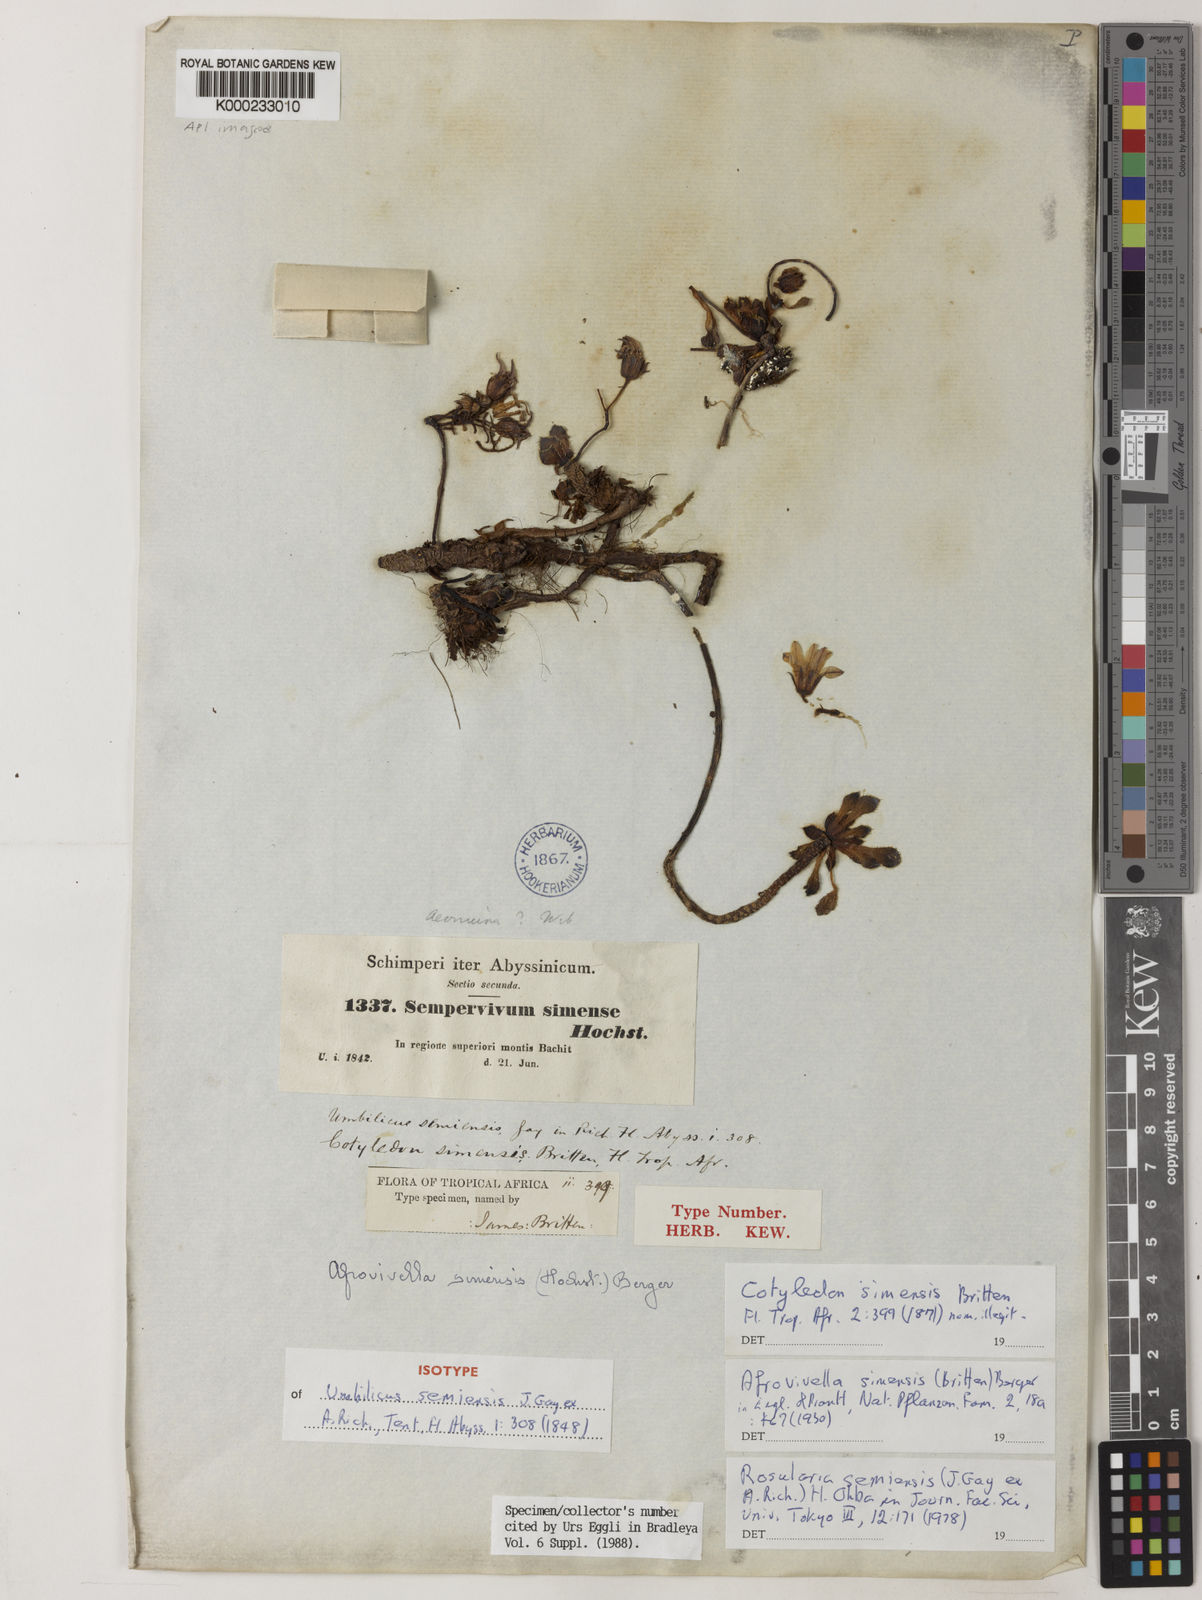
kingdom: Plantae
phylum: Tracheophyta
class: Magnoliopsida
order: Saxifragales
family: Crassulaceae
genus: Afrovivella
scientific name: Afrovivella semiensis
